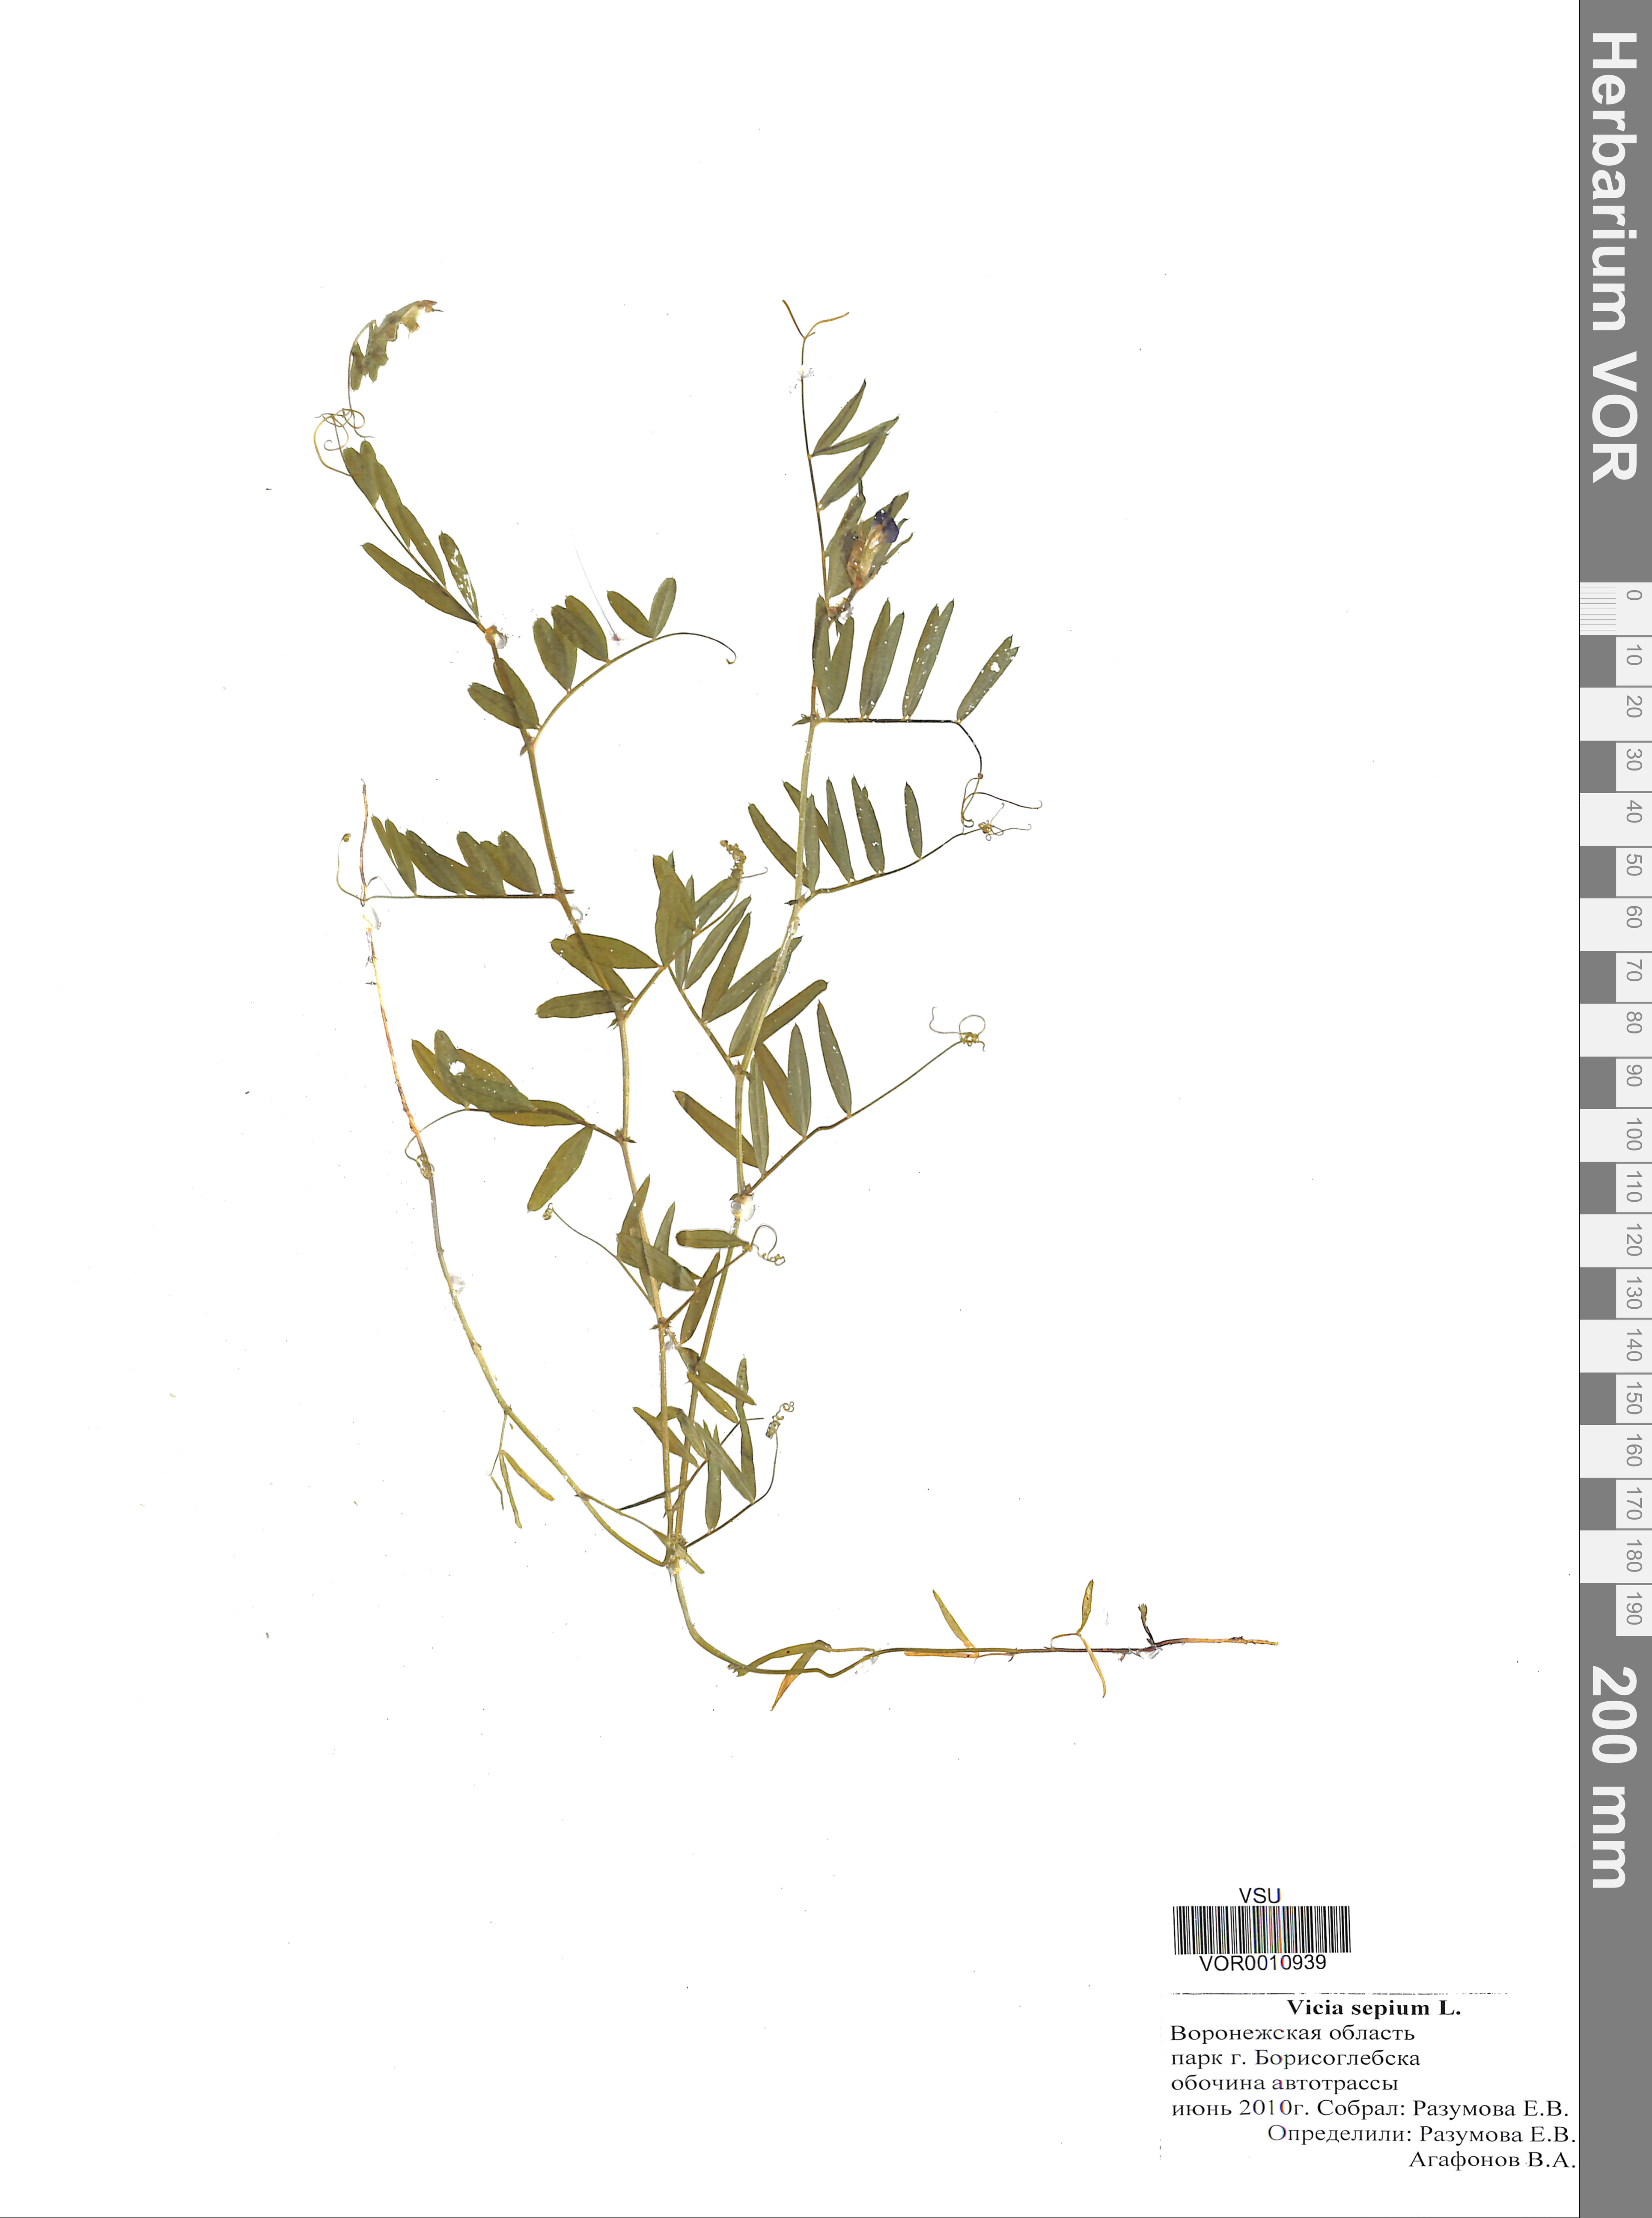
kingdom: Plantae
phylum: Tracheophyta
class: Magnoliopsida
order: Fabales
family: Fabaceae
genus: Vicia
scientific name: Vicia sepium
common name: Bush vetch
